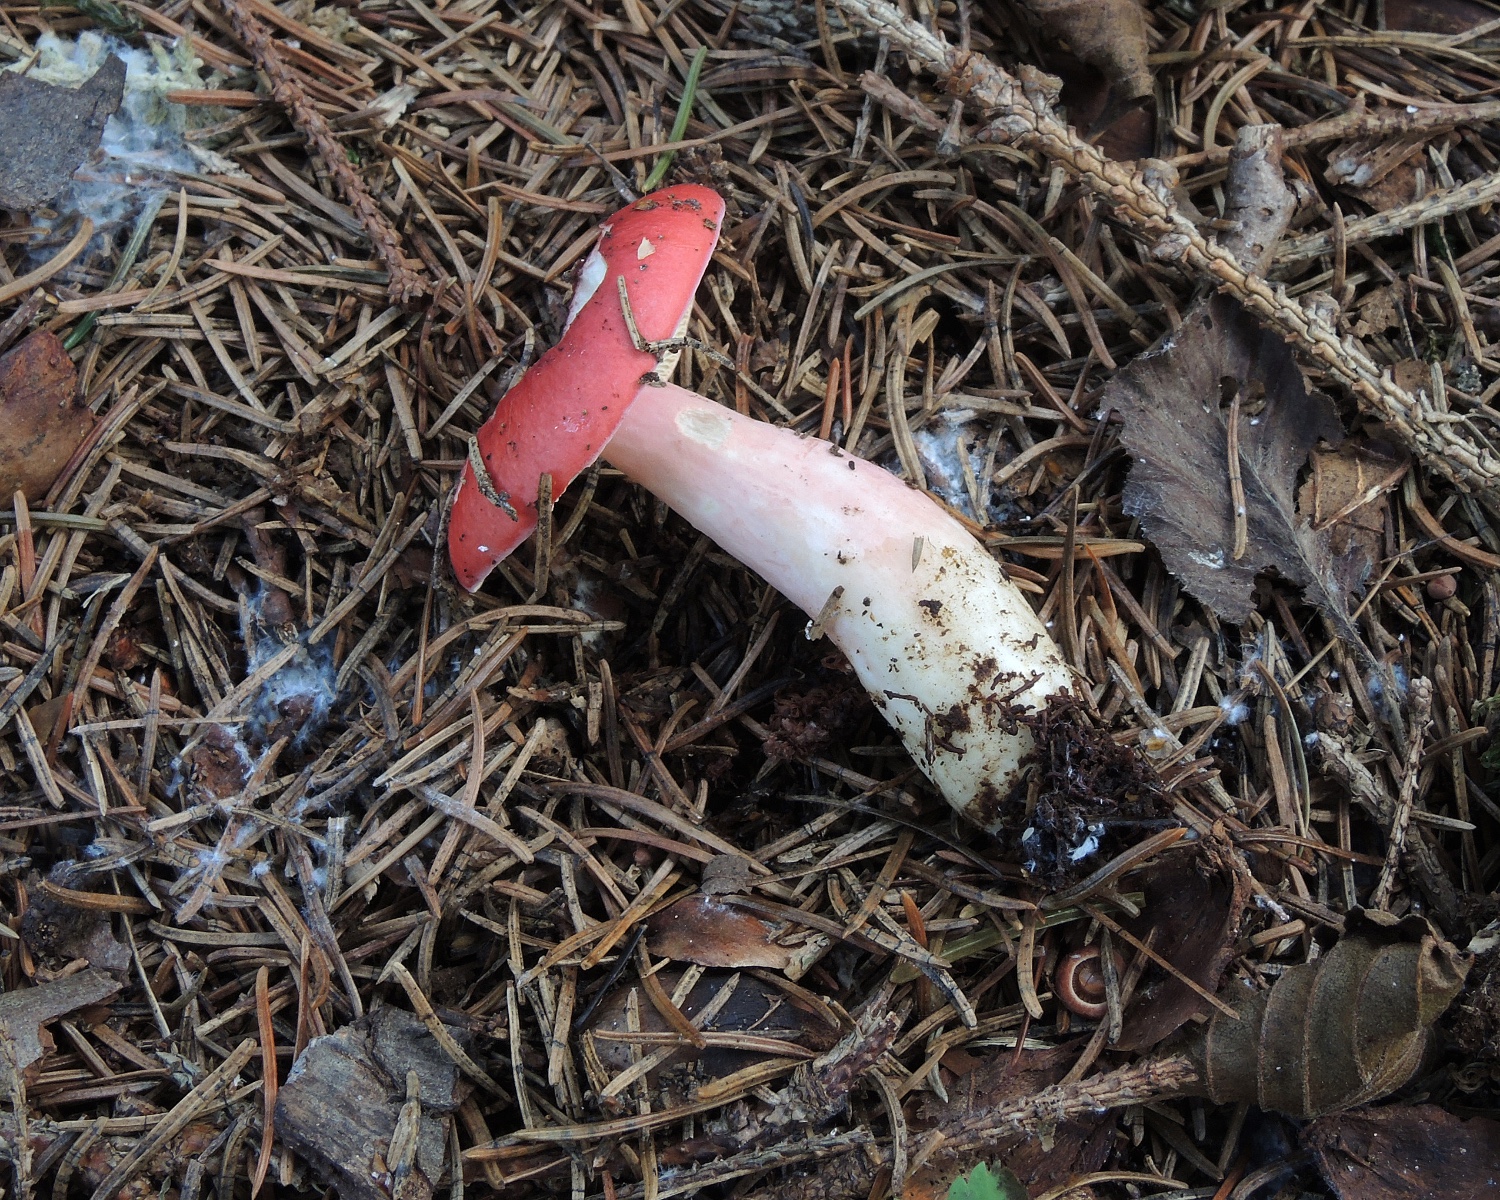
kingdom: Fungi
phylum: Basidiomycota
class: Agaricomycetes
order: Russulales
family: Russulaceae
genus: Russula
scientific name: Russula
